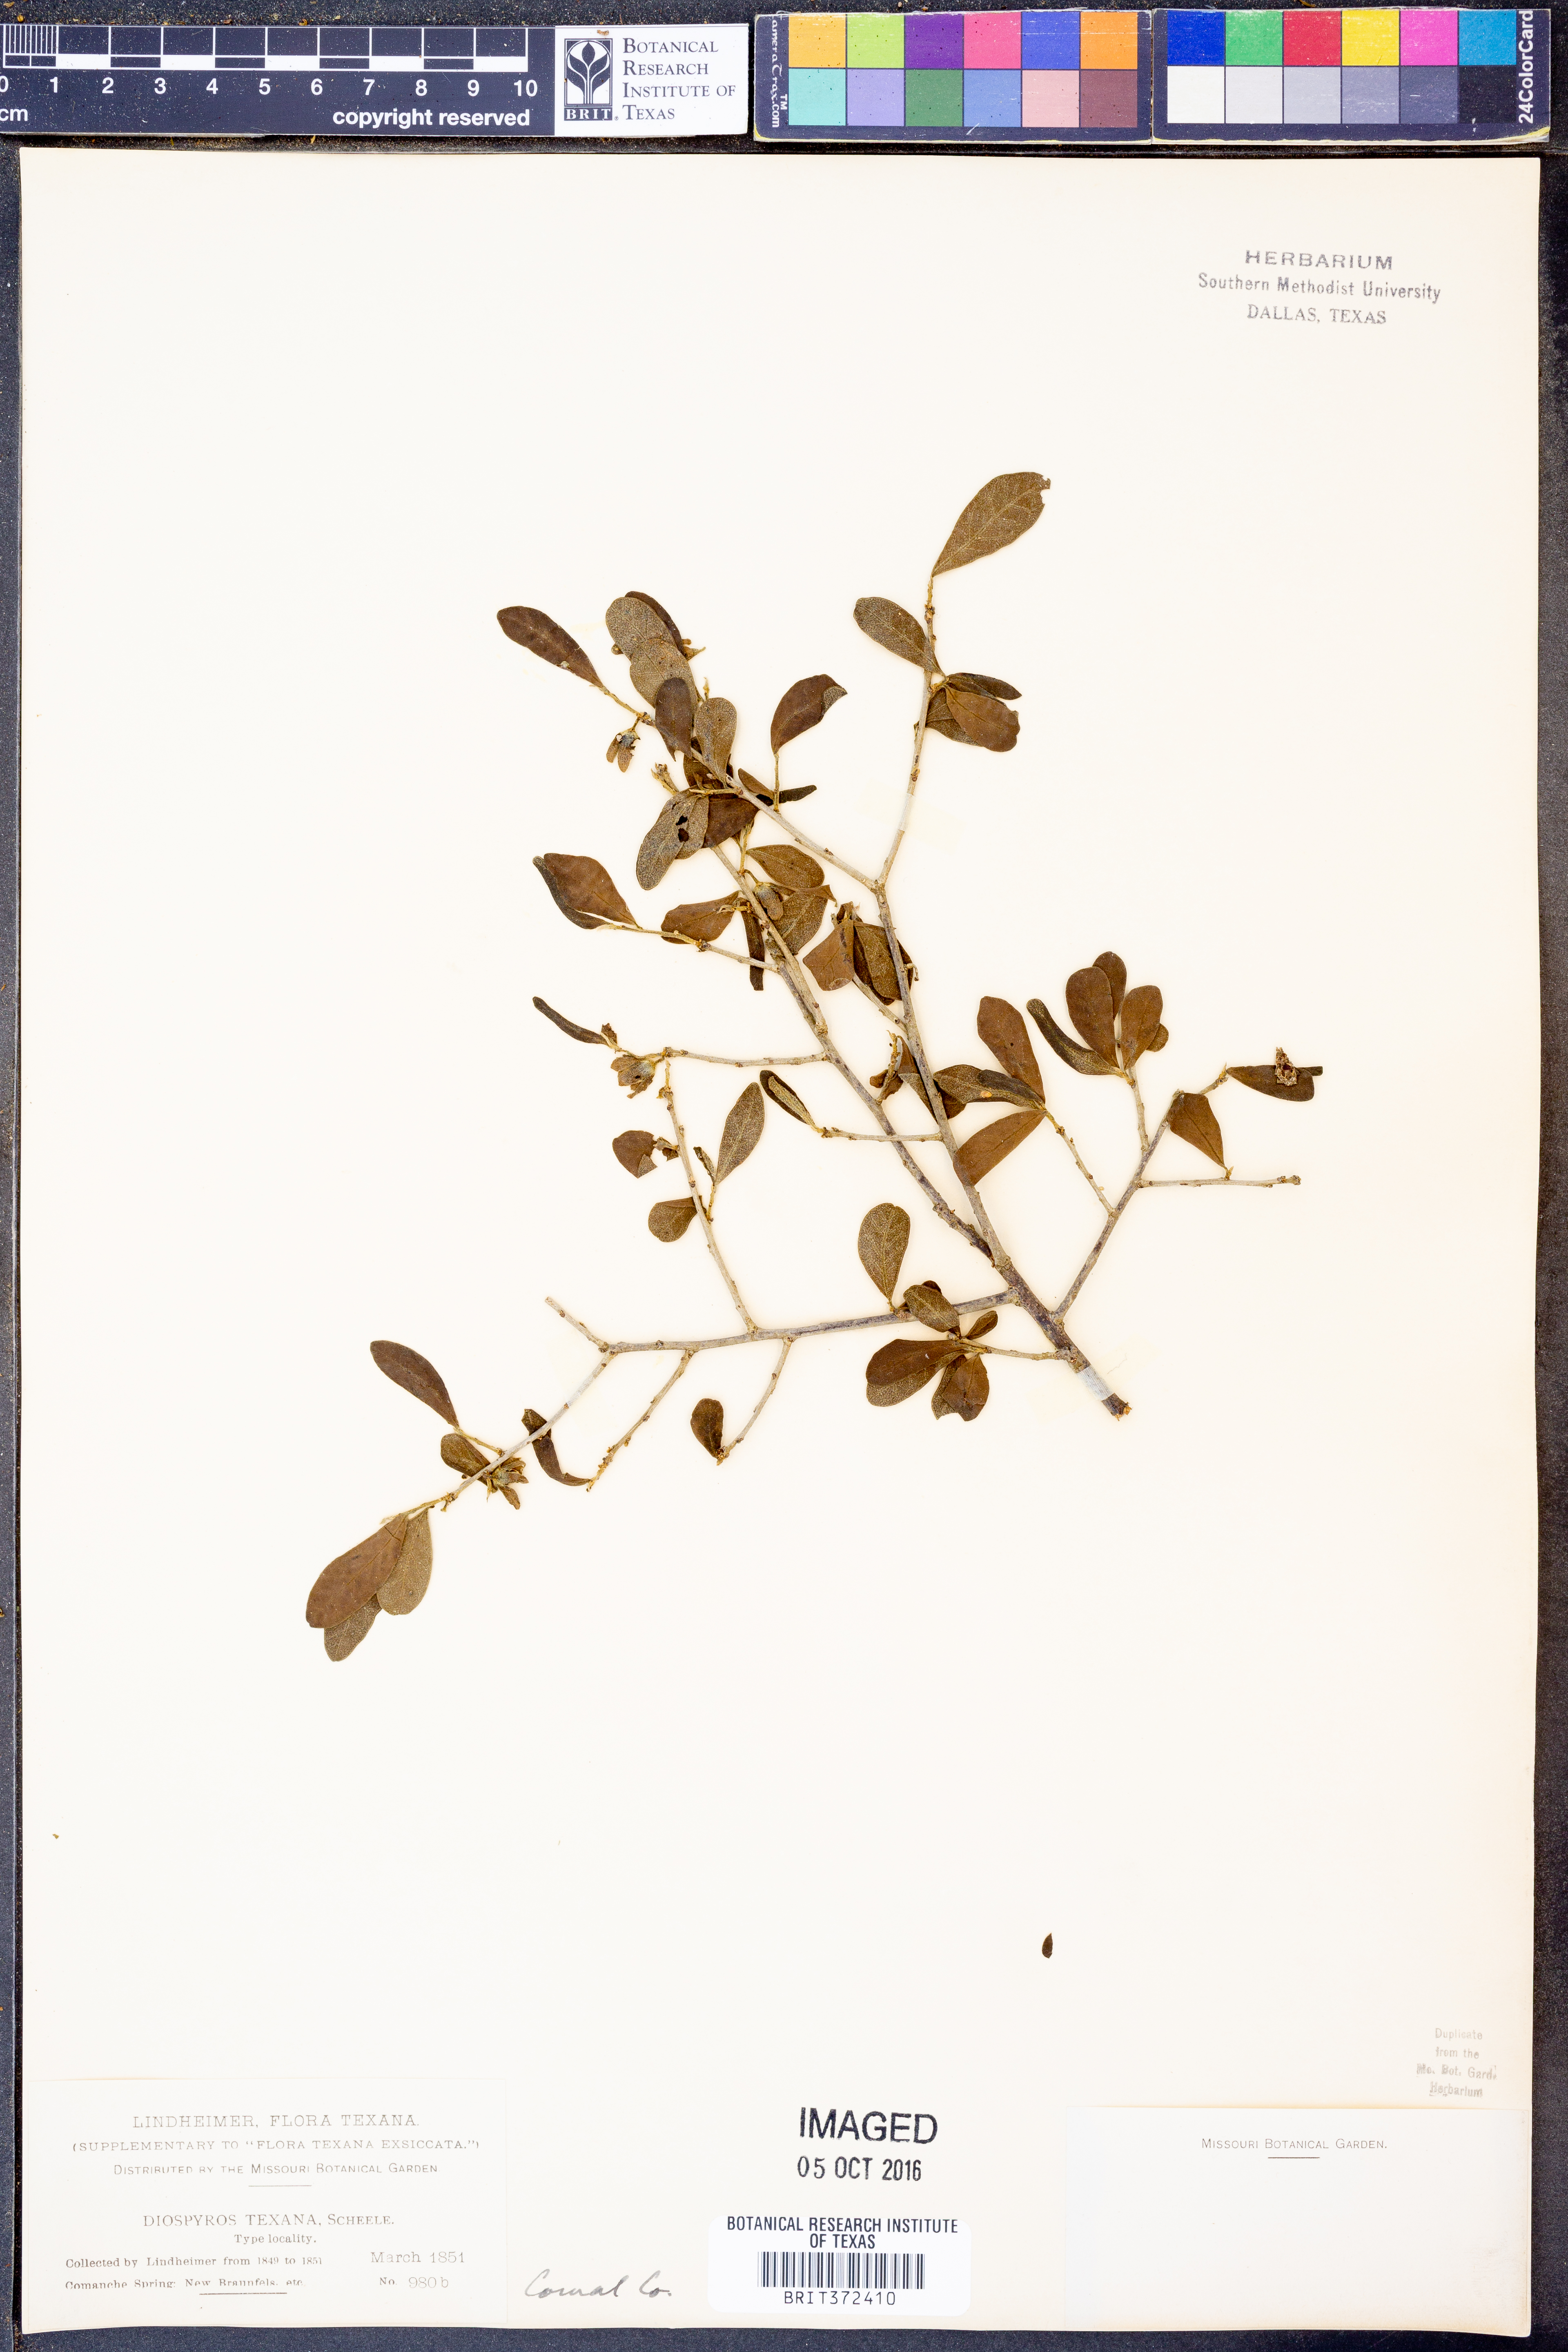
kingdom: Plantae
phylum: Tracheophyta
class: Magnoliopsida
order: Ericales
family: Ebenaceae
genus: Diospyros
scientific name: Diospyros texana
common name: Texas persimmon
